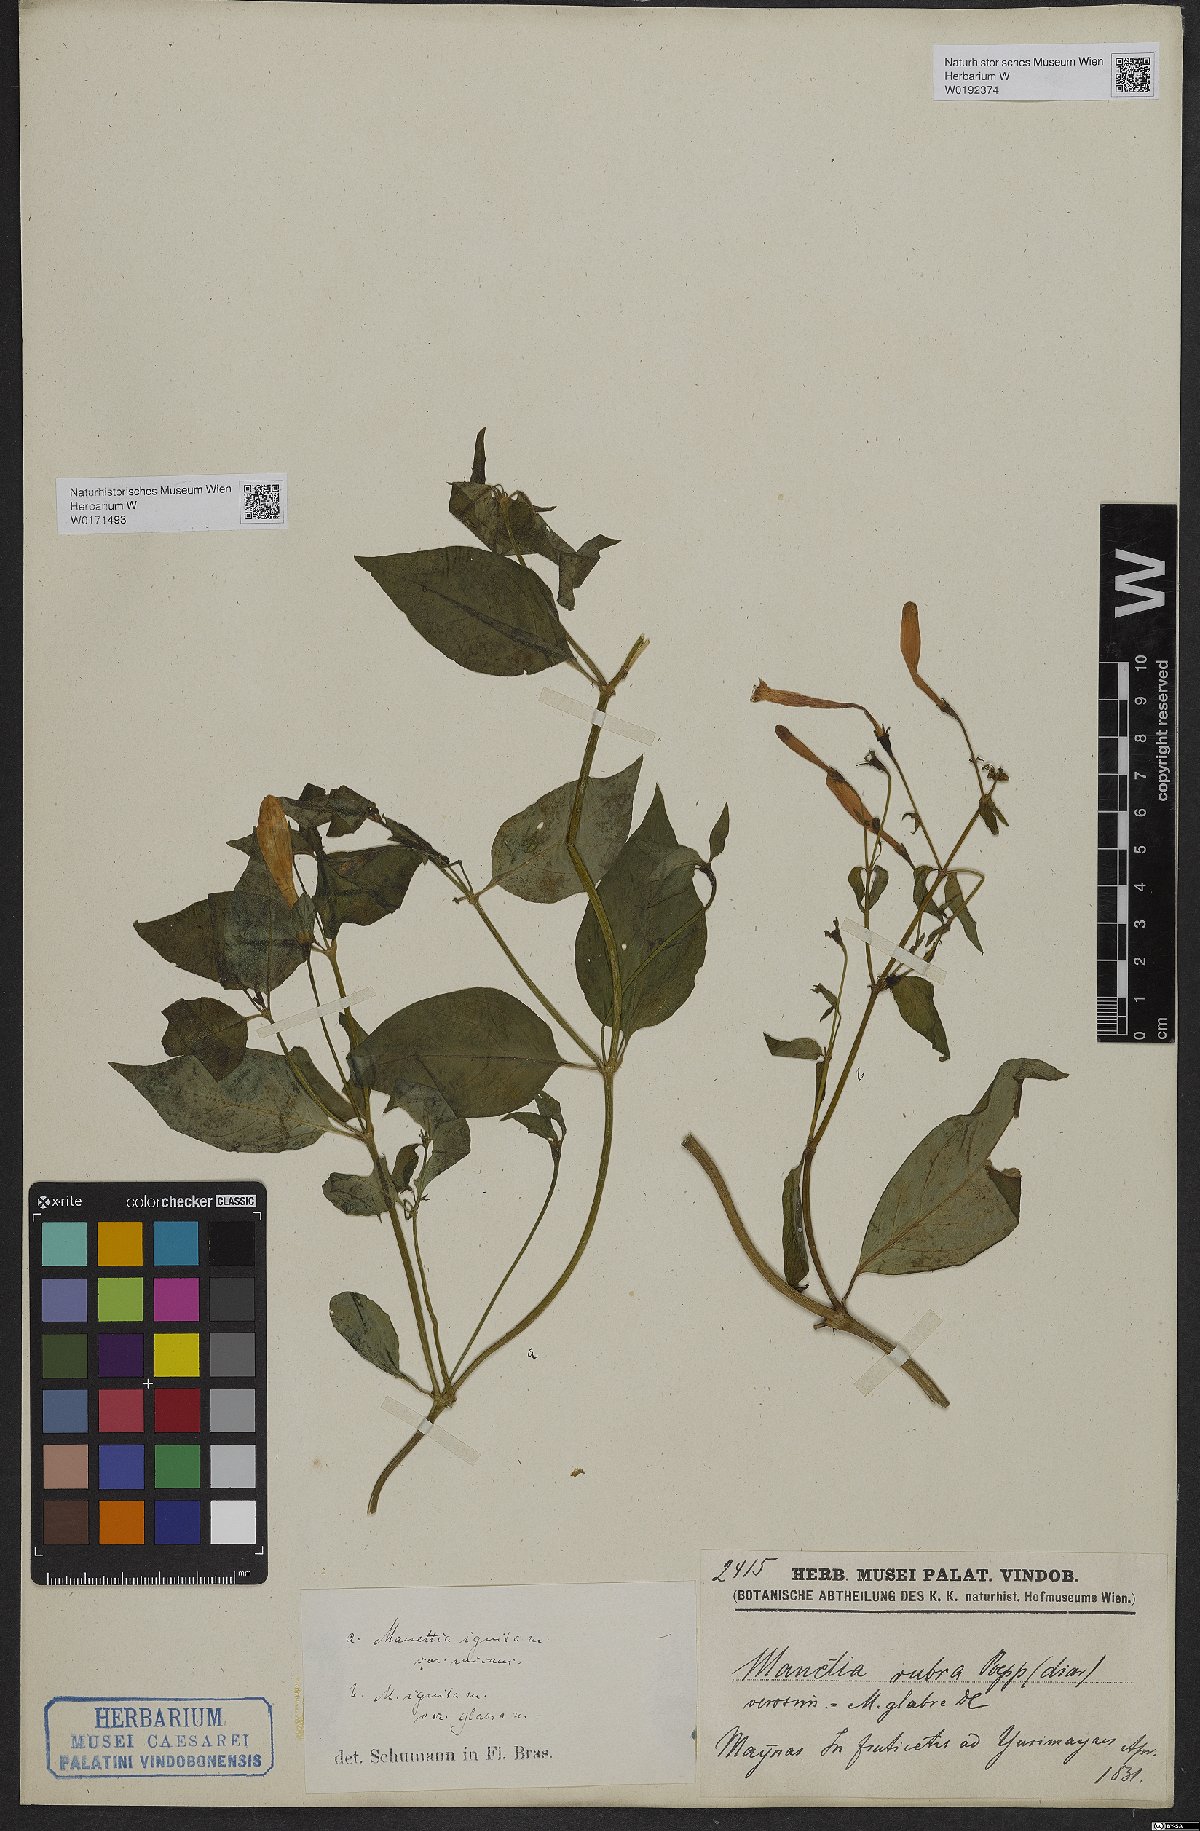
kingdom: Plantae
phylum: Tracheophyta
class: Magnoliopsida
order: Gentianales
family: Rubiaceae
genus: Manettia
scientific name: Manettia cordifolia
